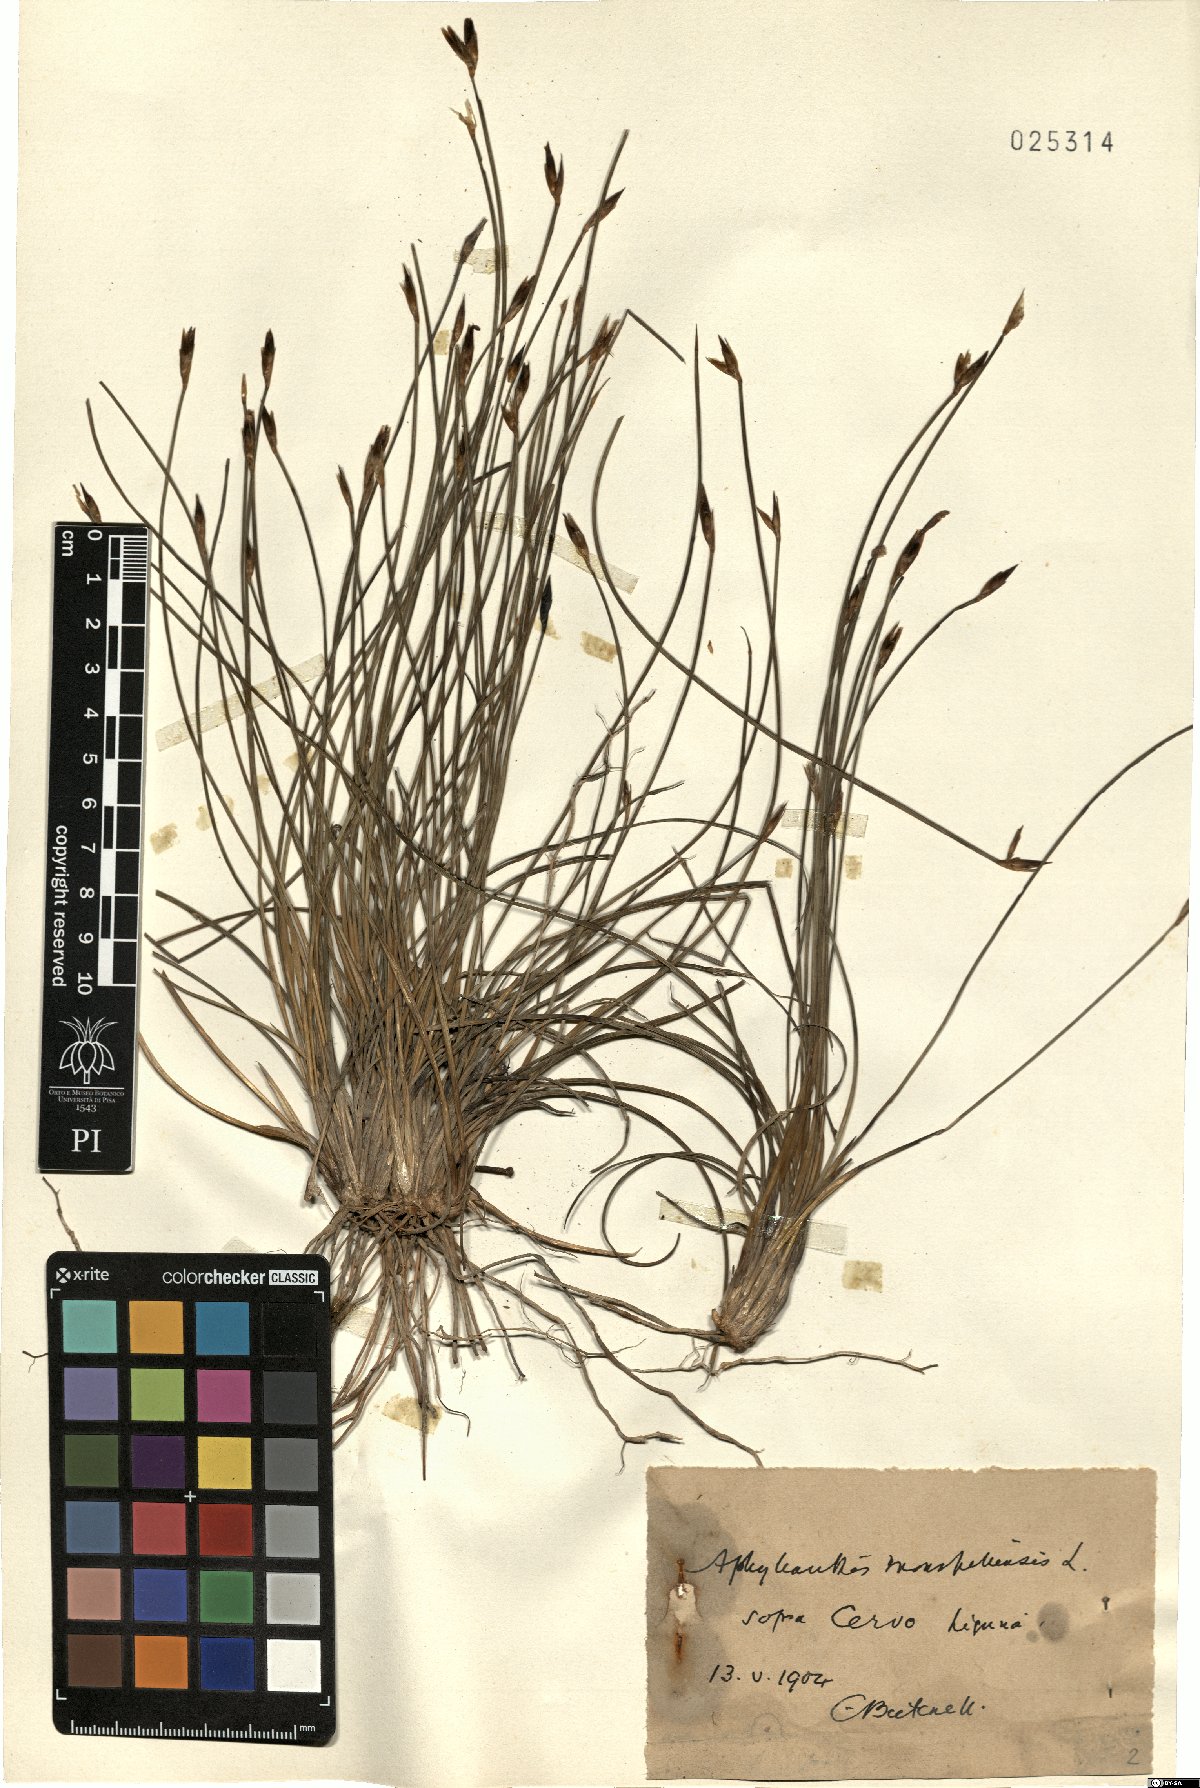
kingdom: Plantae
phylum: Tracheophyta
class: Liliopsida
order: Asparagales
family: Asparagaceae
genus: Aphyllanthes
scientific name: Aphyllanthes monspeliensis
